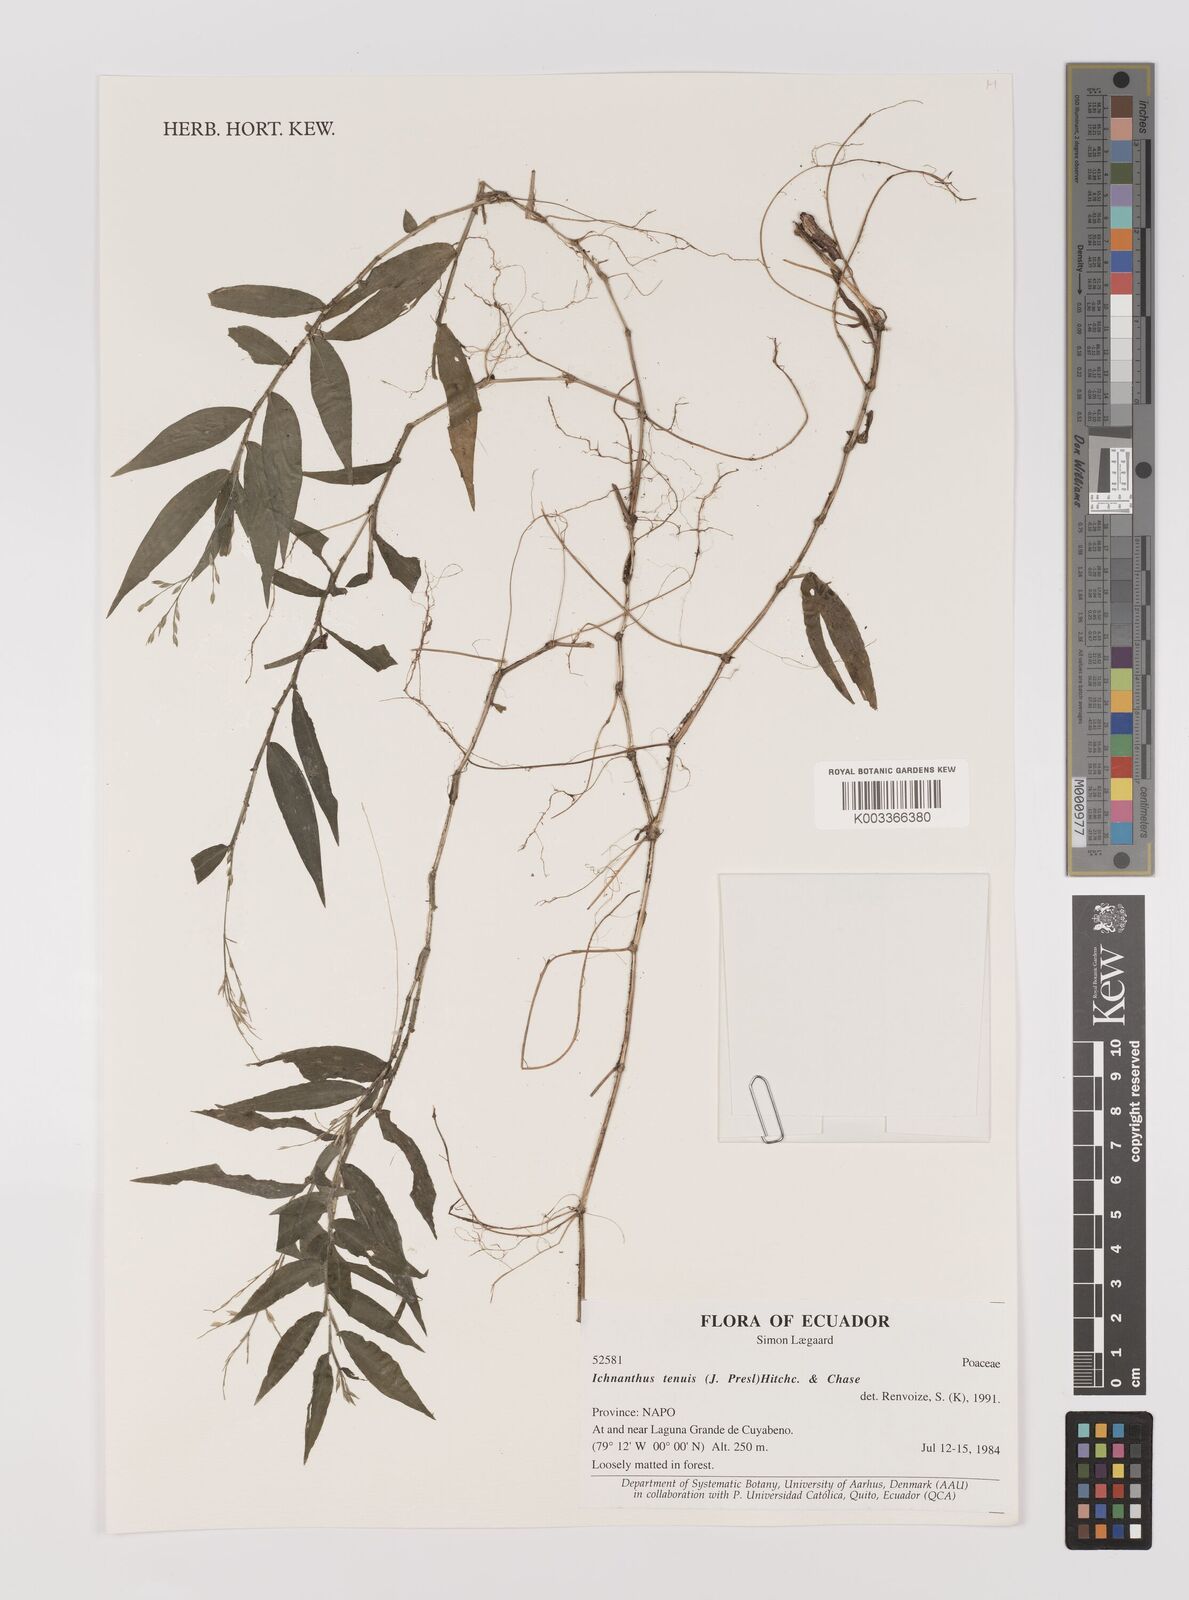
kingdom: Plantae
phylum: Tracheophyta
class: Liliopsida
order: Poales
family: Poaceae
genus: Ichnanthus
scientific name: Ichnanthus tenuis
